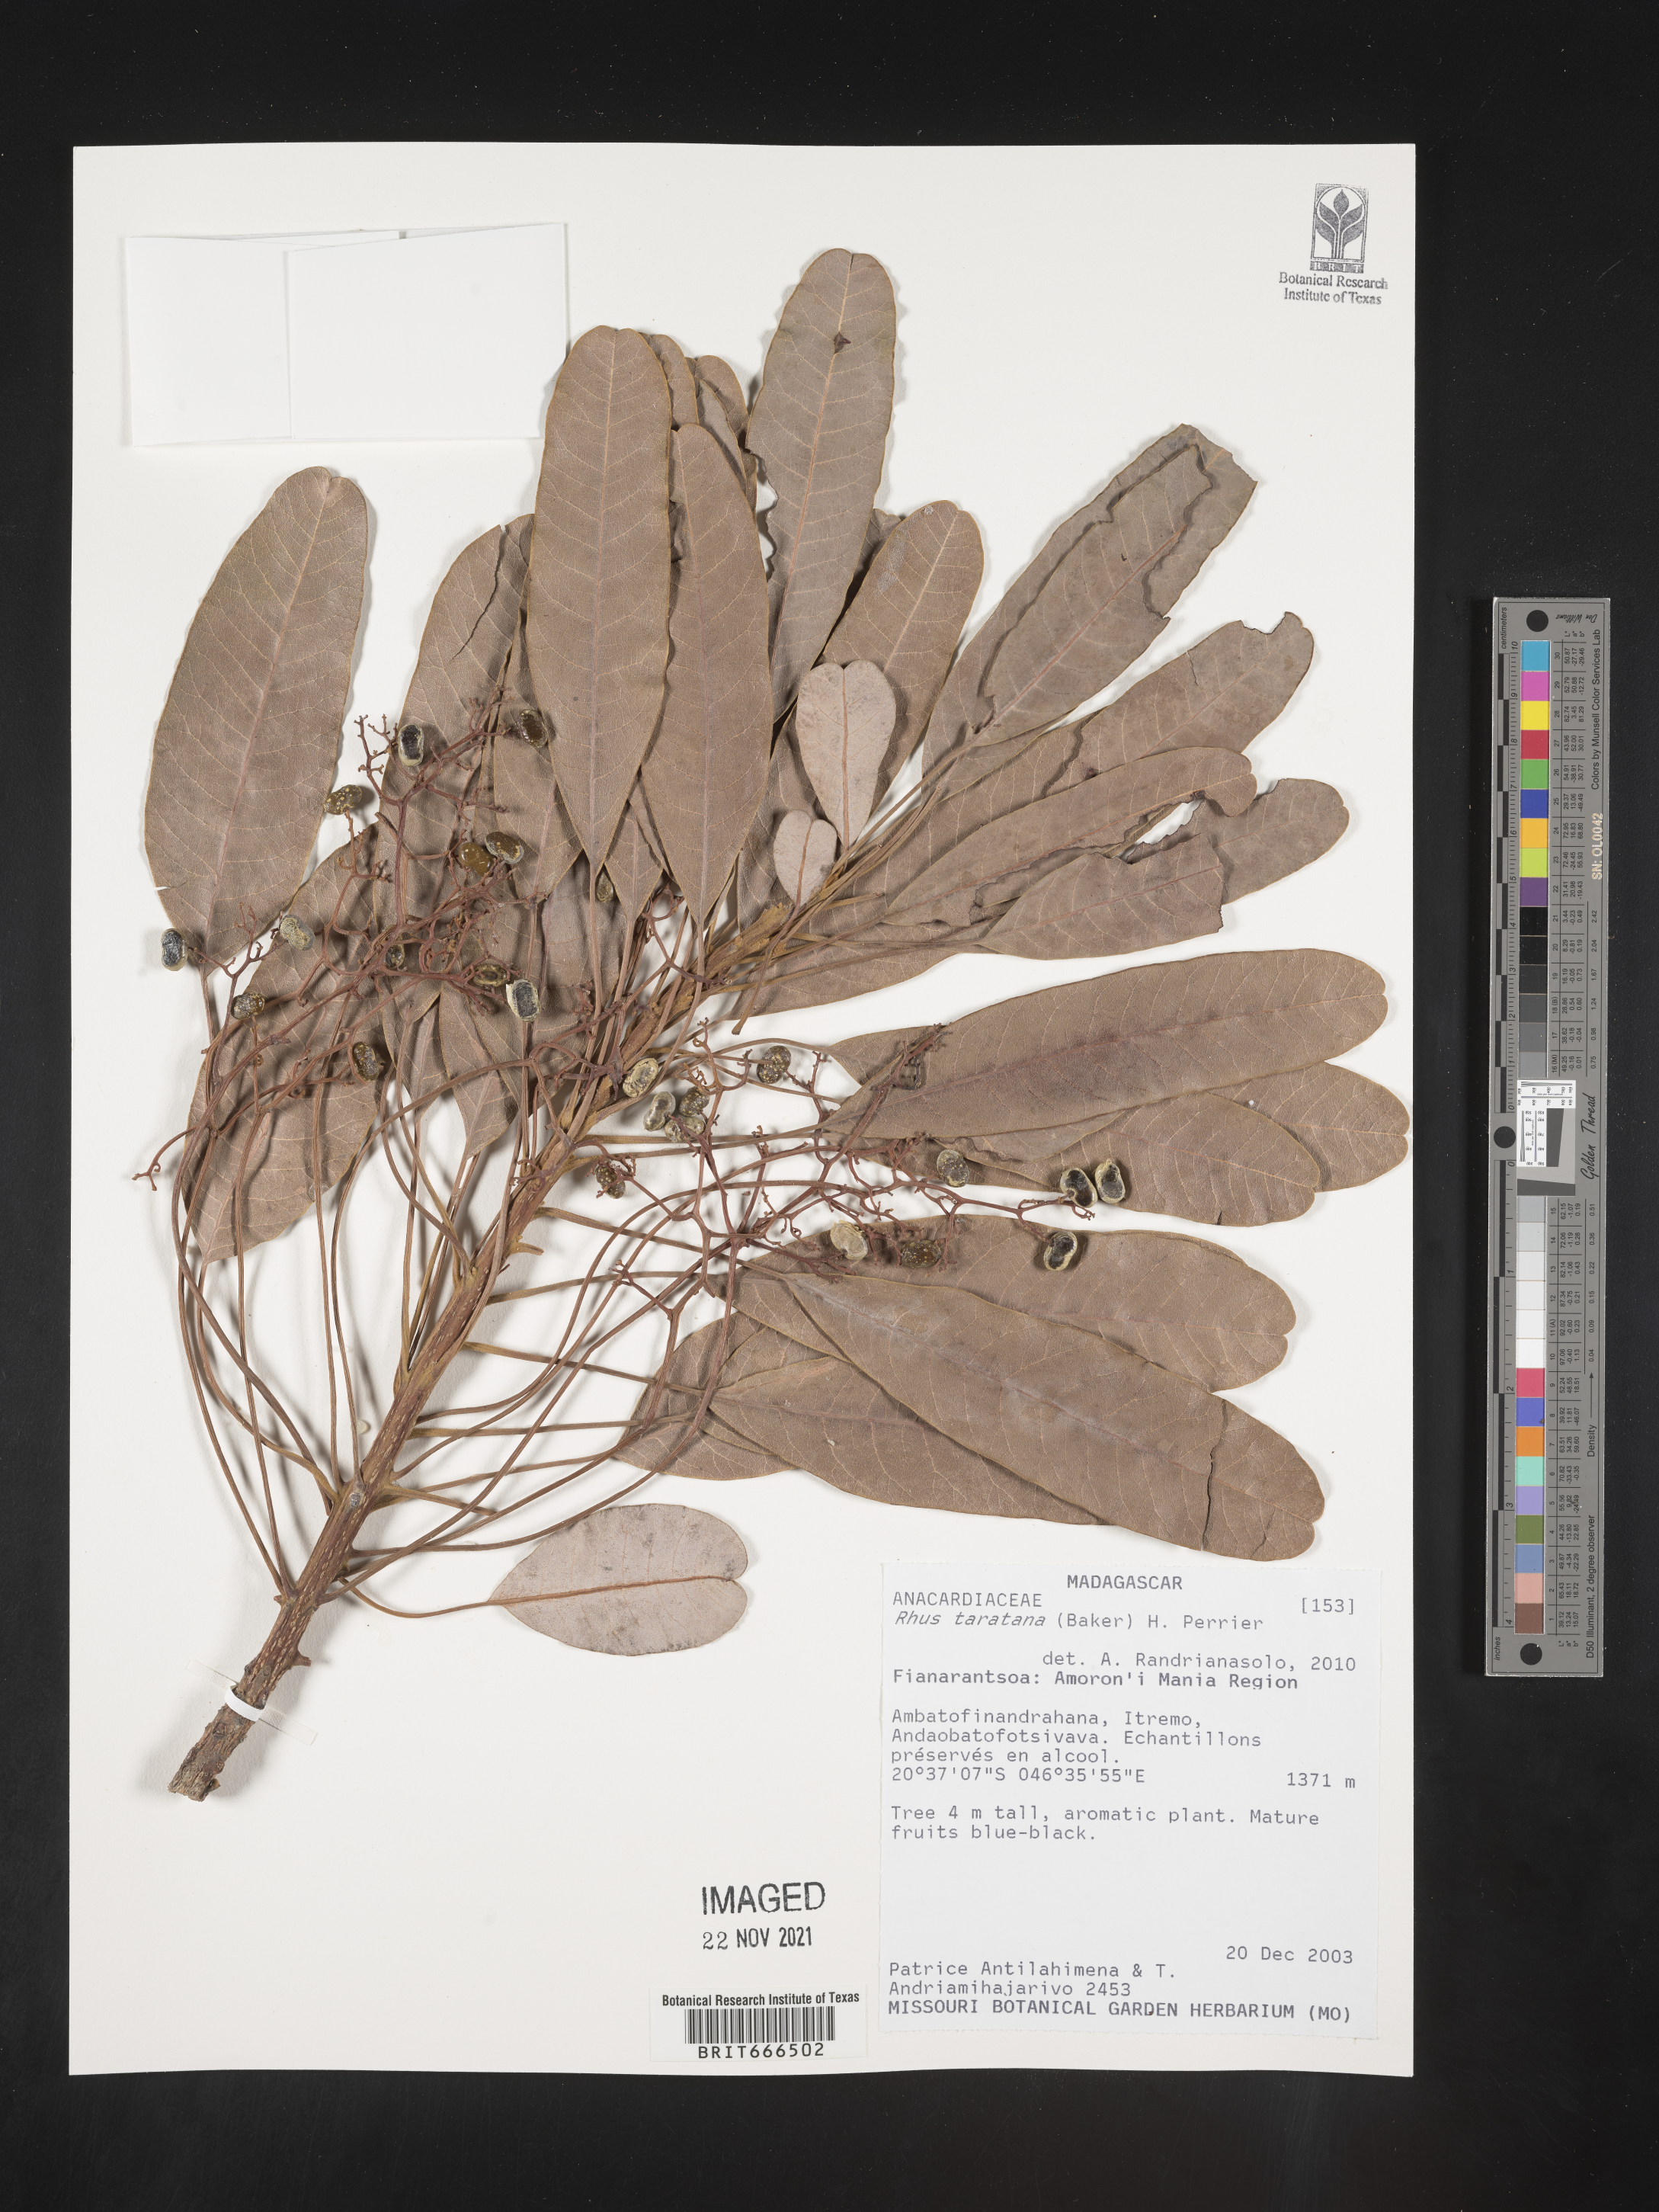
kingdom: Plantae
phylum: Tracheophyta
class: Magnoliopsida
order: Sapindales
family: Anacardiaceae
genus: Rhus
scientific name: Rhus
